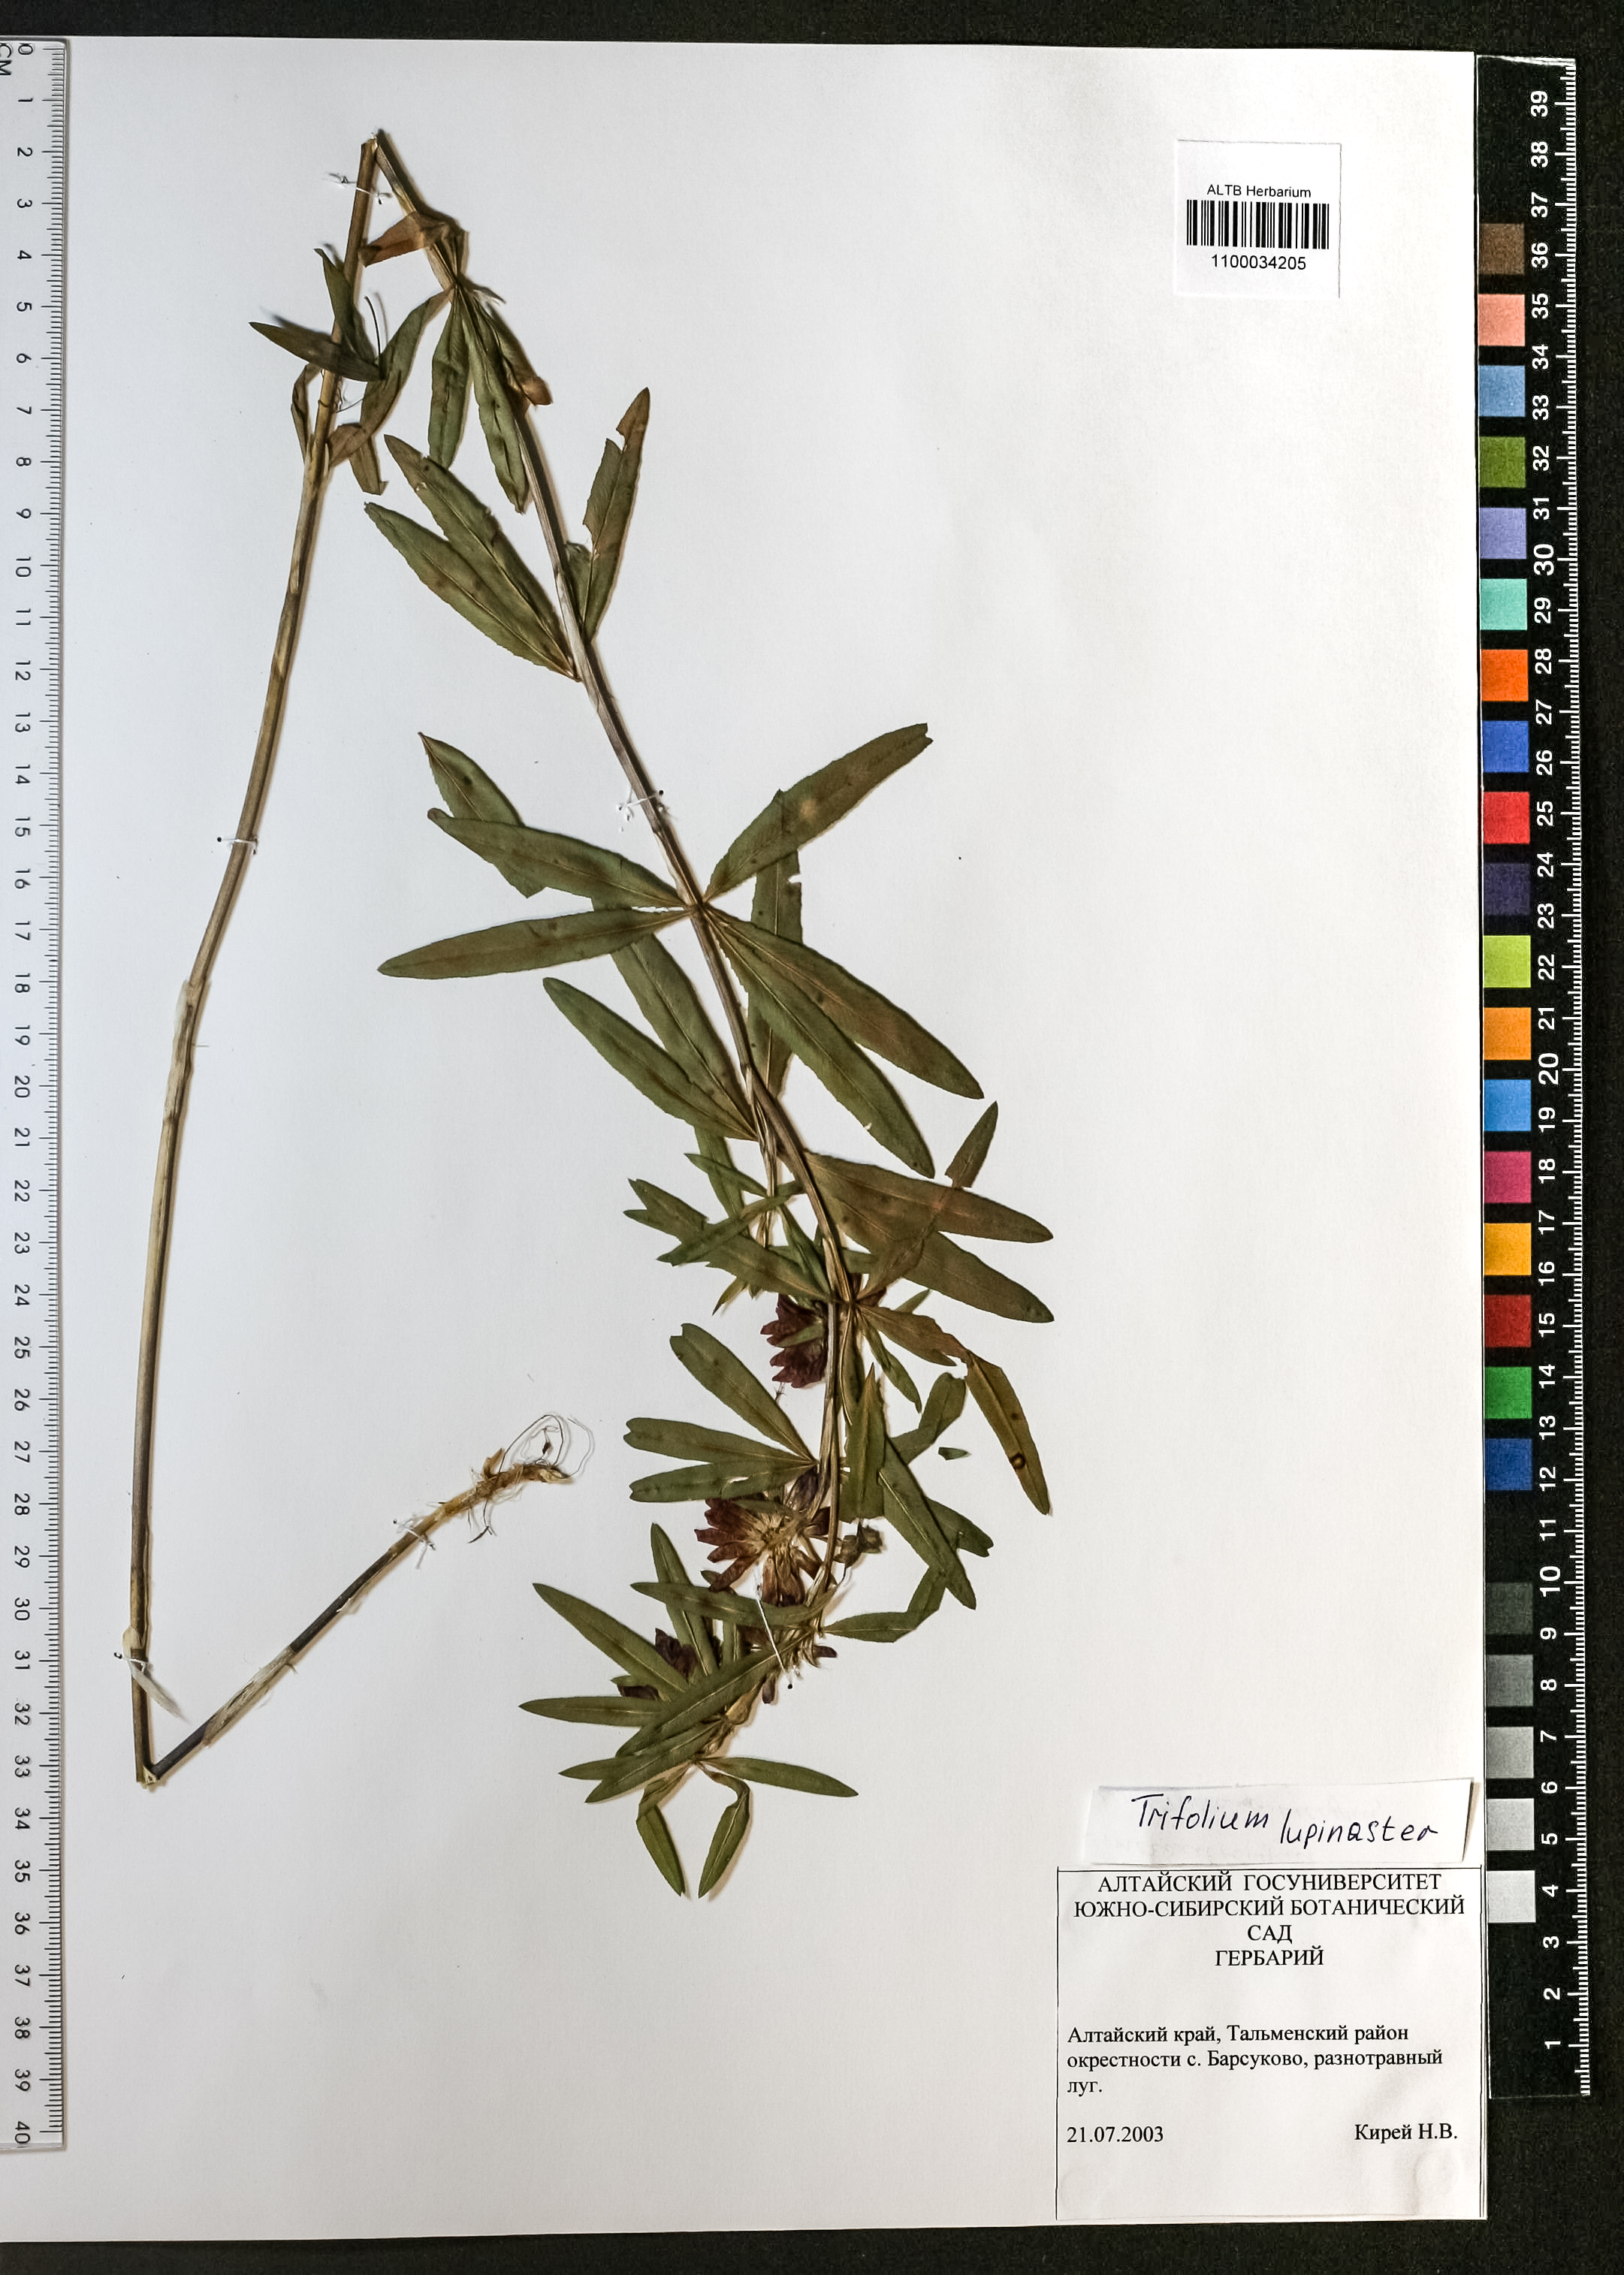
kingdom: Plantae
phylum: Tracheophyta
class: Magnoliopsida
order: Fabales
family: Fabaceae
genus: Trifolium
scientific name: Trifolium lupinaster
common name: Lupine clover
